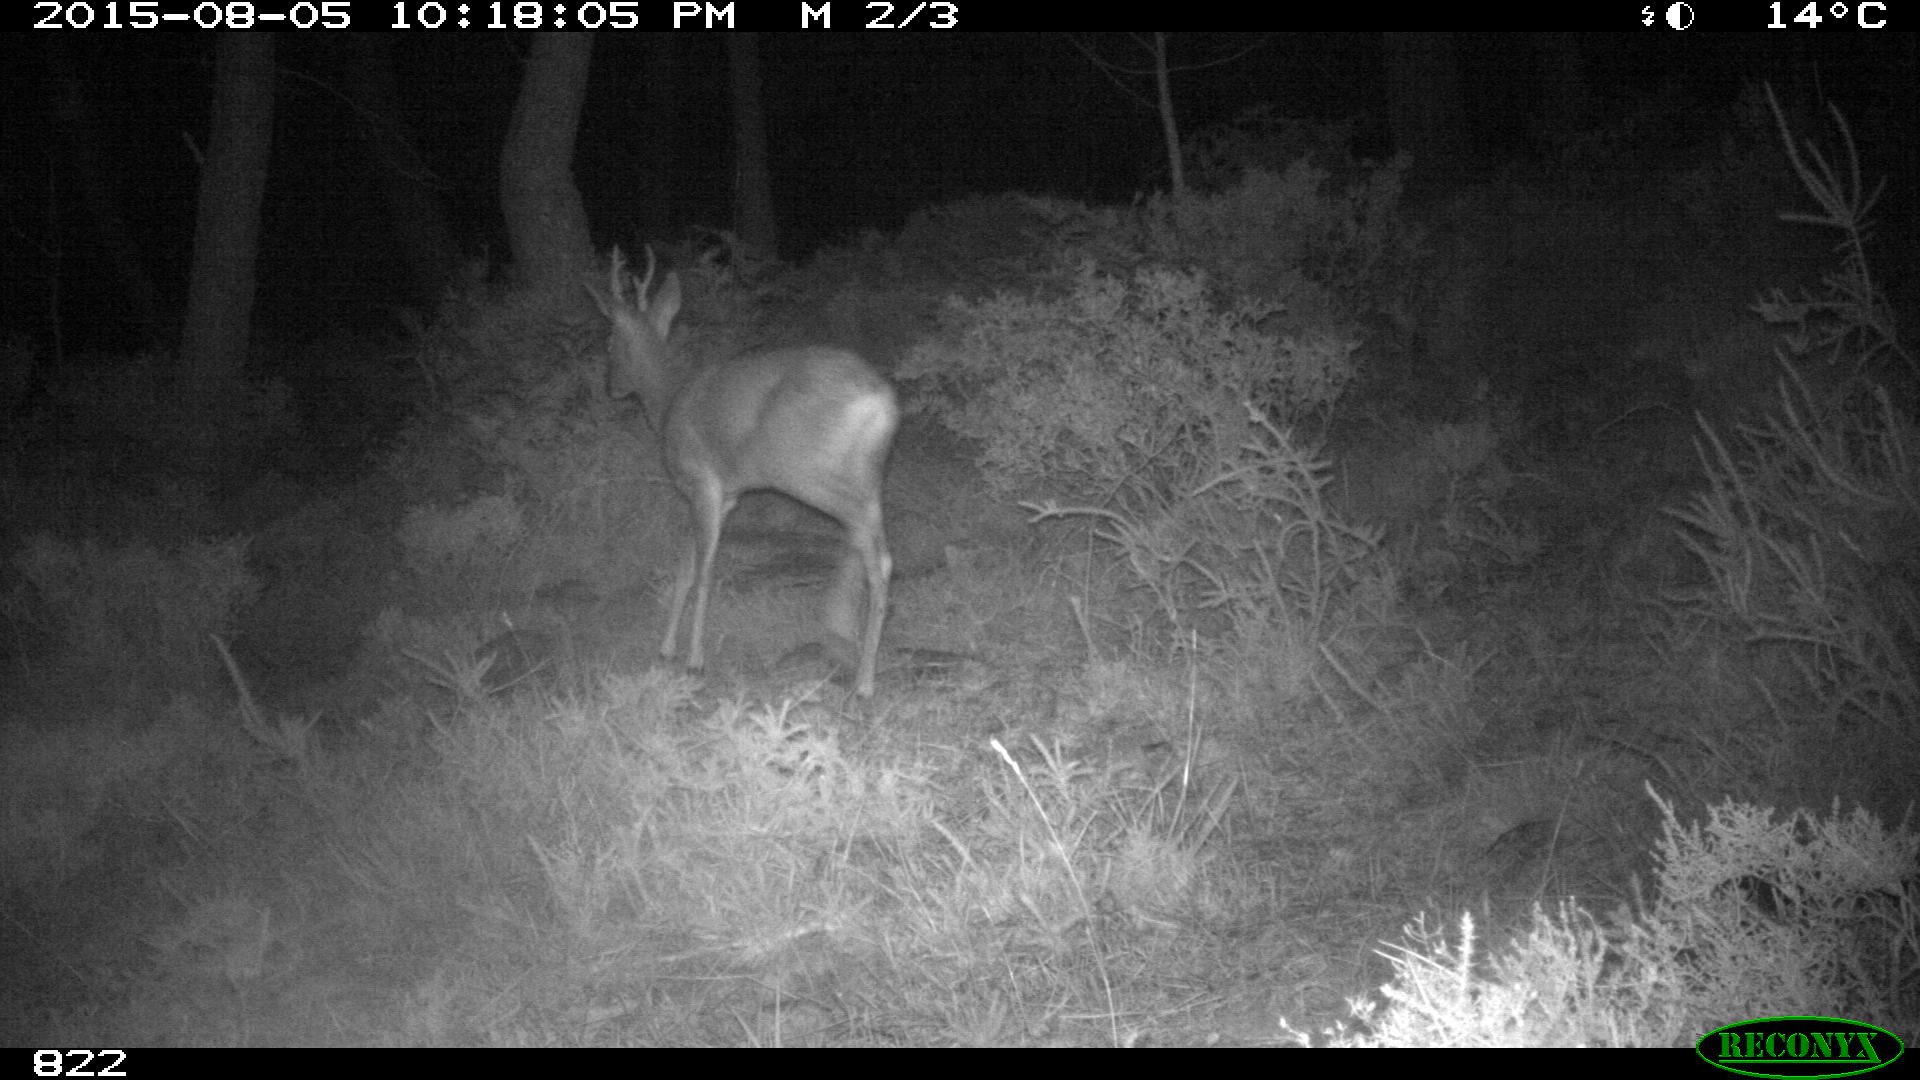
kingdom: Animalia
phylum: Chordata
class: Mammalia
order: Artiodactyla
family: Cervidae
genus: Capreolus
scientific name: Capreolus capreolus
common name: Western roe deer
